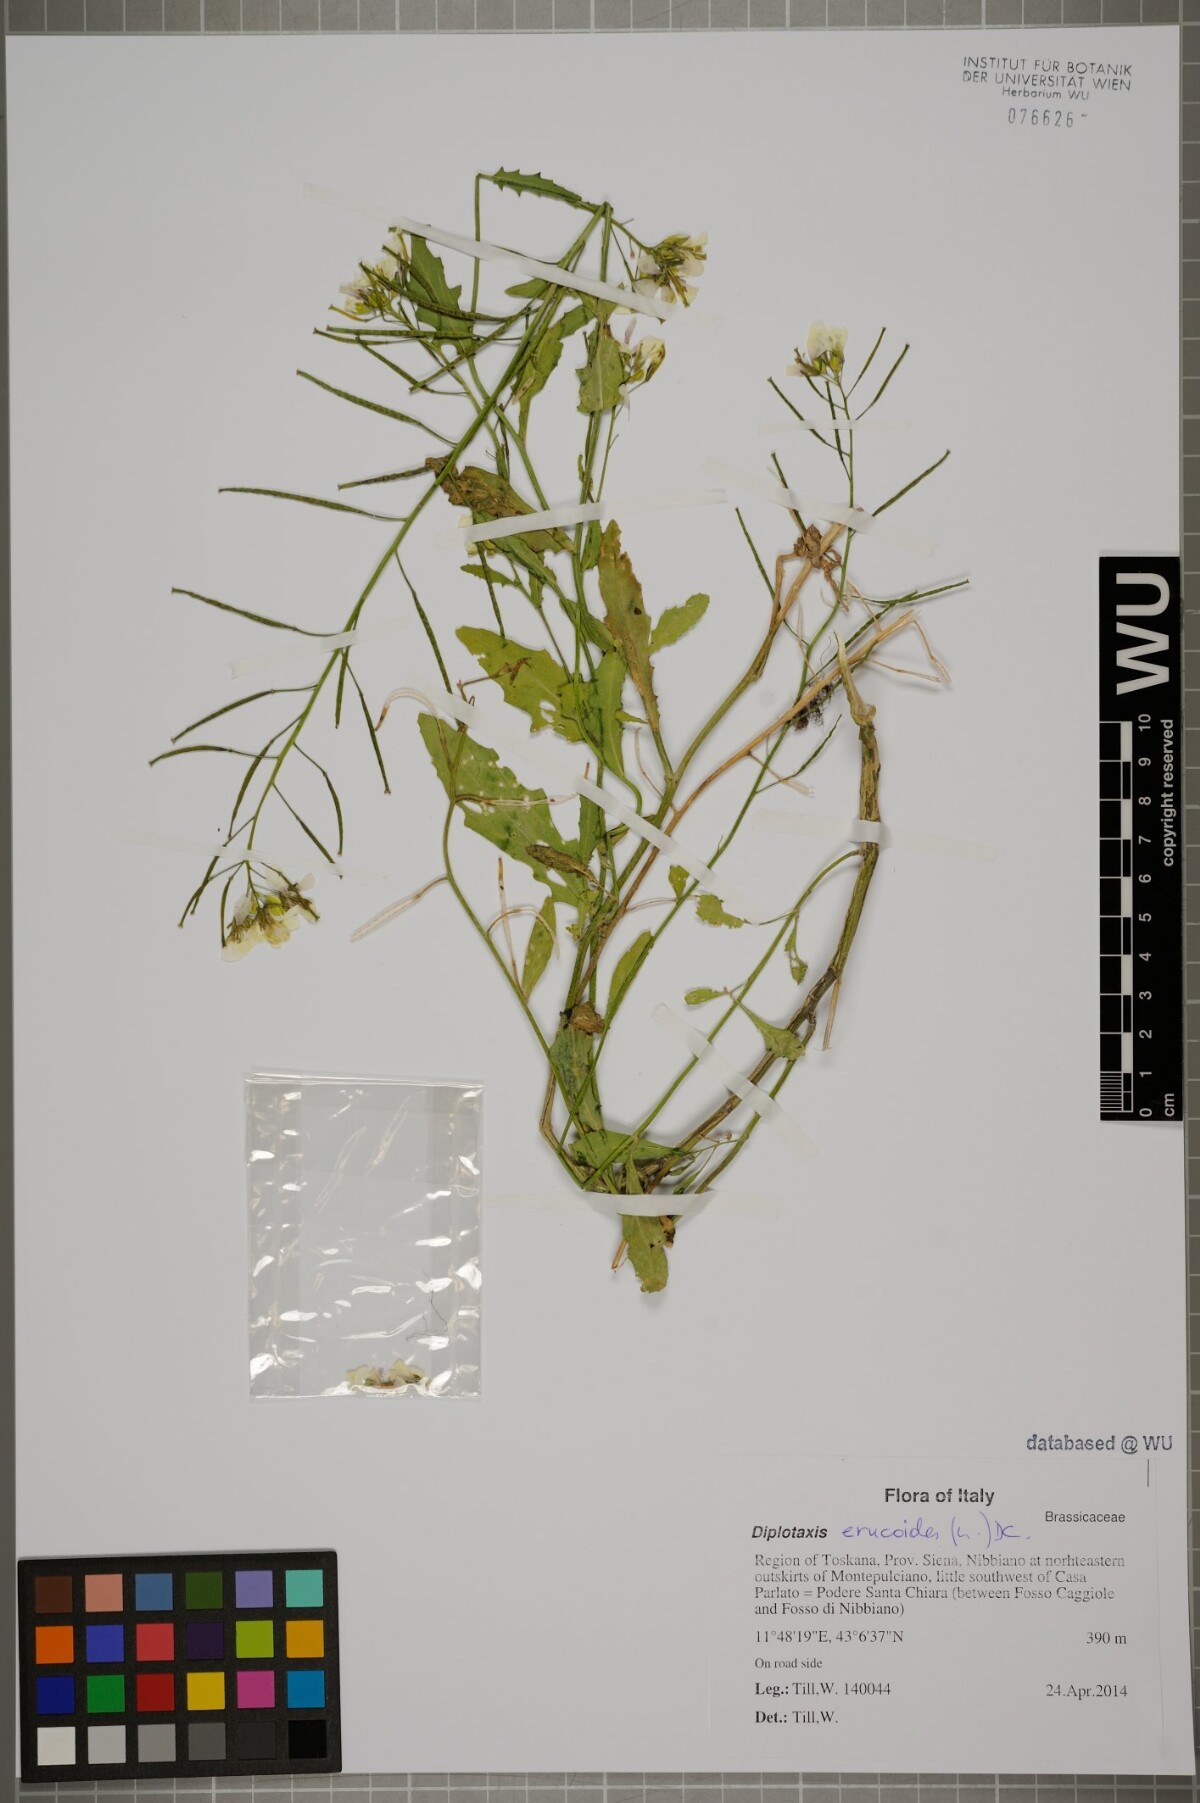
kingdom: Plantae
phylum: Tracheophyta
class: Magnoliopsida
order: Brassicales
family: Brassicaceae
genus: Diplotaxis
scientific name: Diplotaxis erucoides
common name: White rocket
